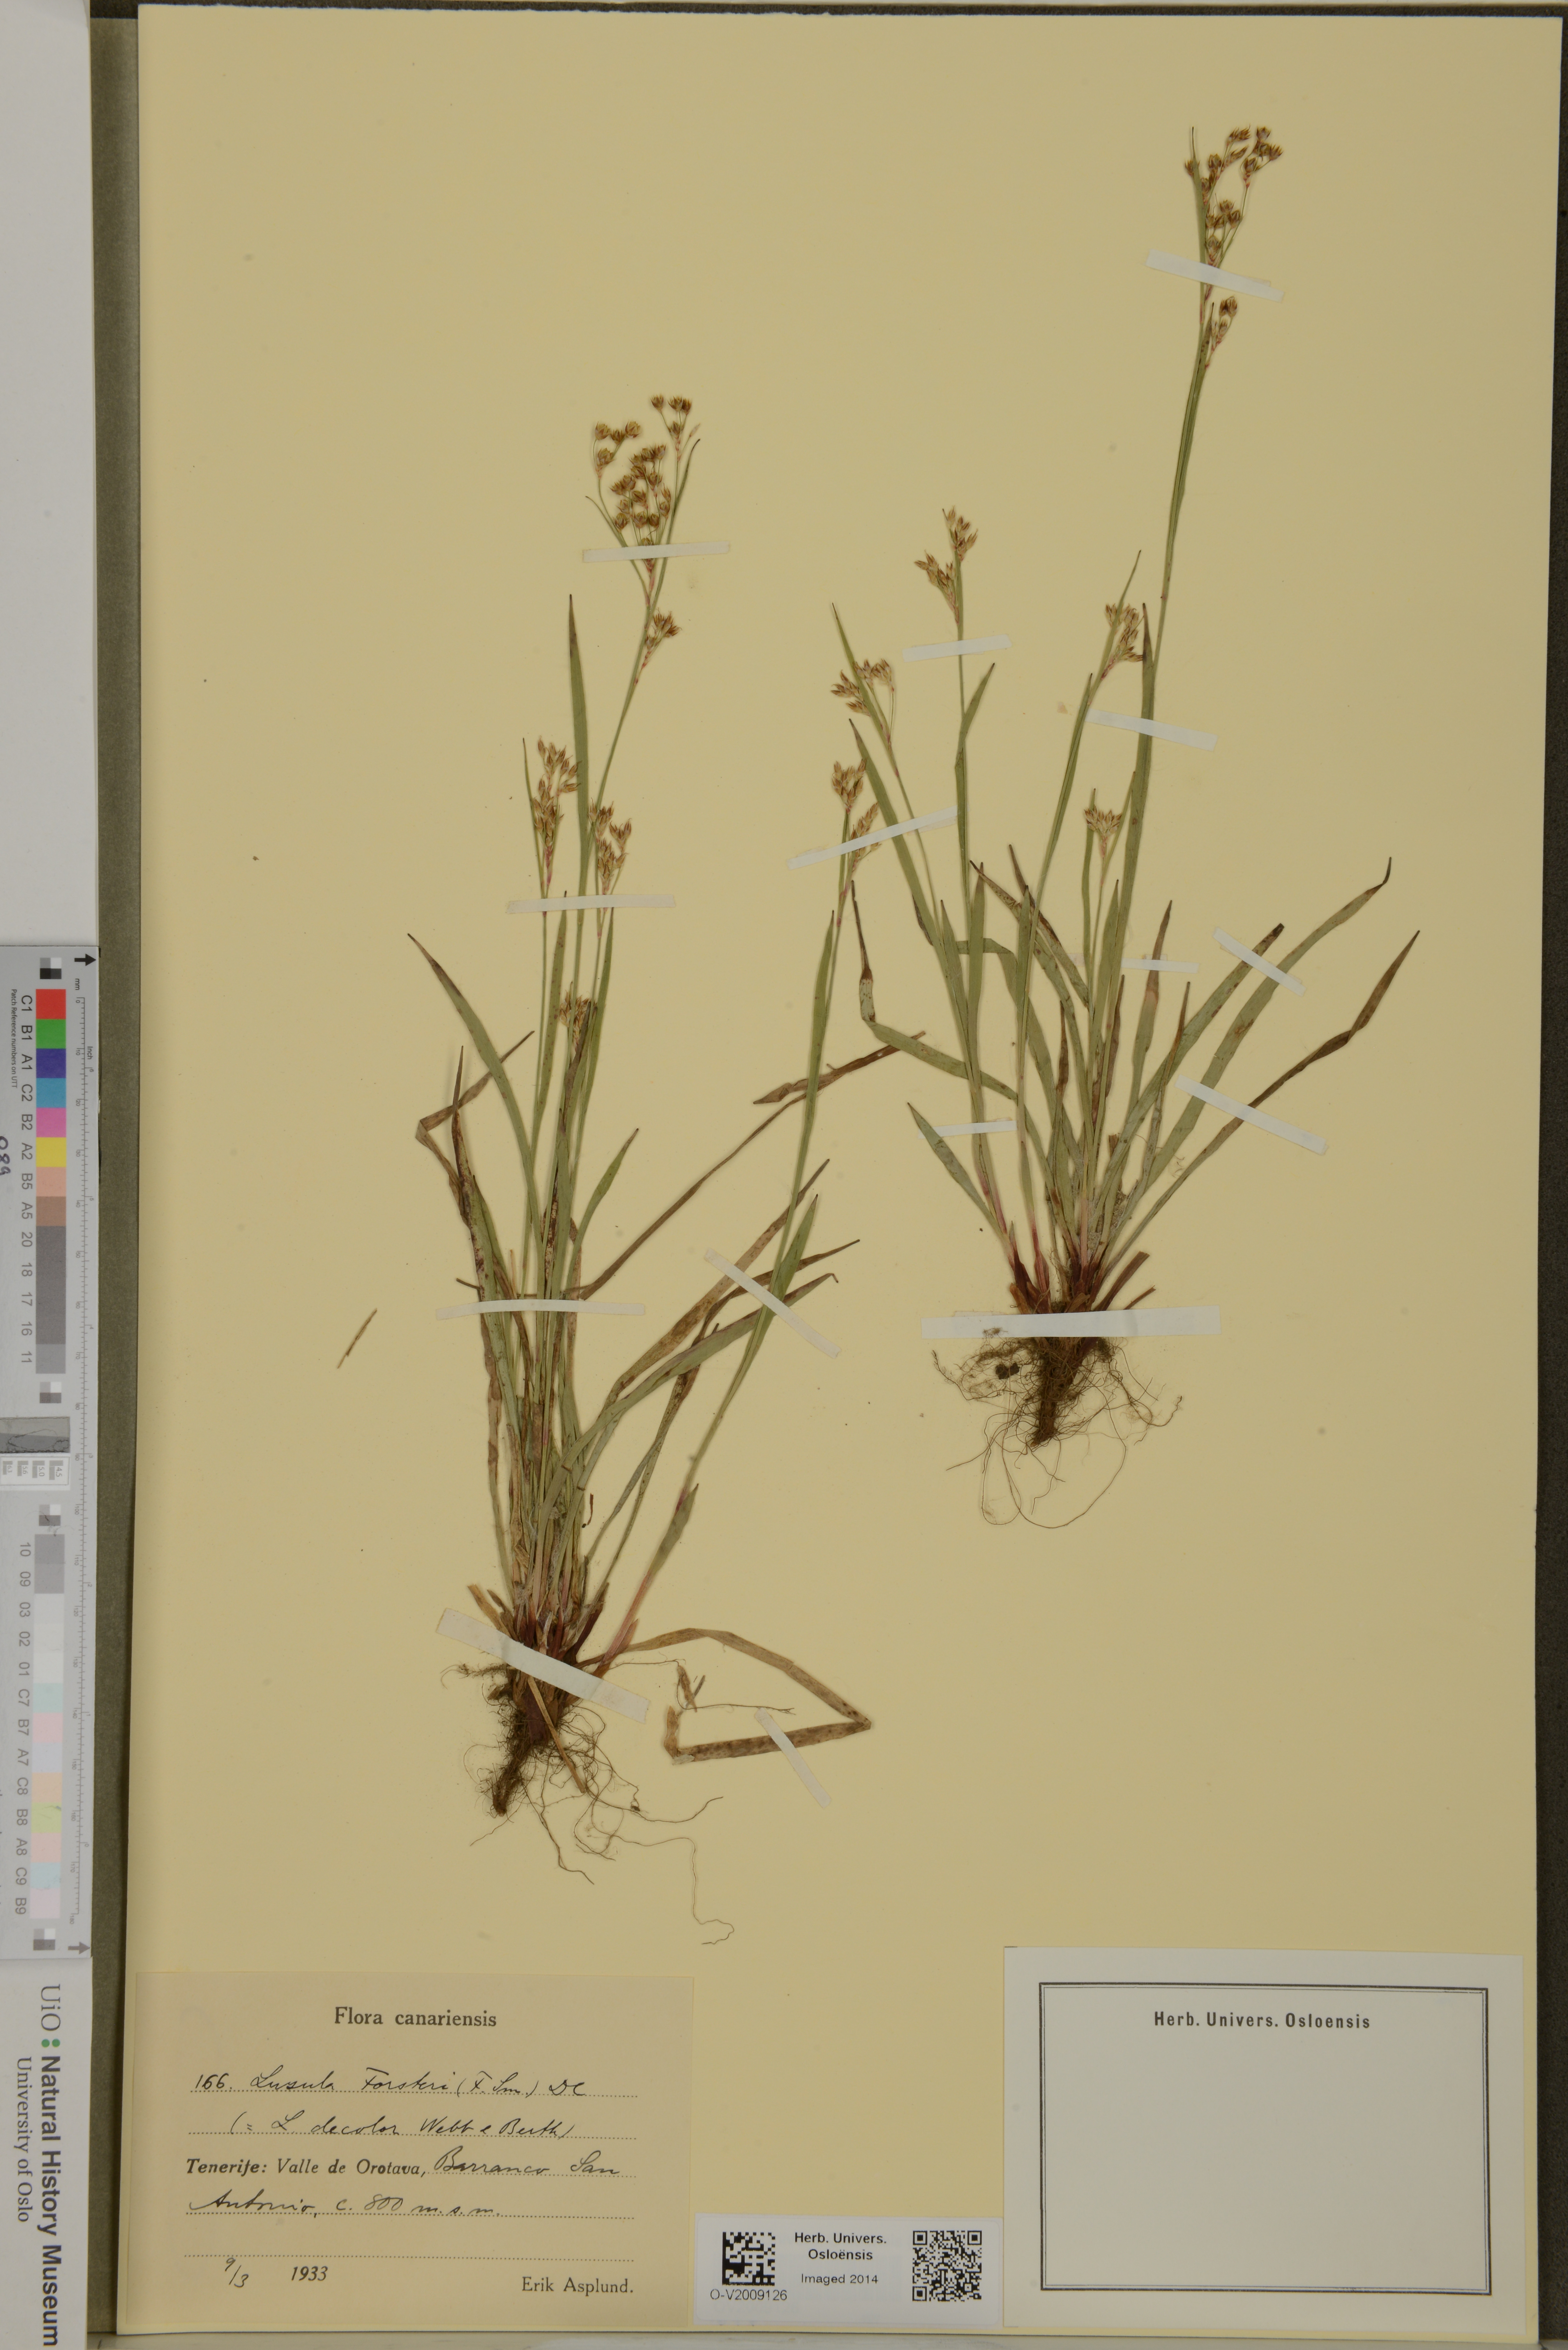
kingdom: Plantae
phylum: Tracheophyta
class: Liliopsida
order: Poales
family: Juncaceae
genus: Luzula
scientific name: Luzula forsteri
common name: Southern wood-rush
